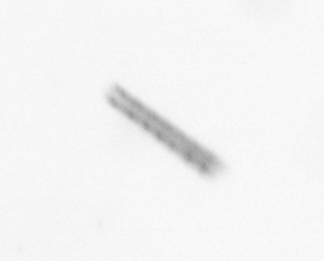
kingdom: Chromista
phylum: Ochrophyta
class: Bacillariophyceae
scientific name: Bacillariophyceae
